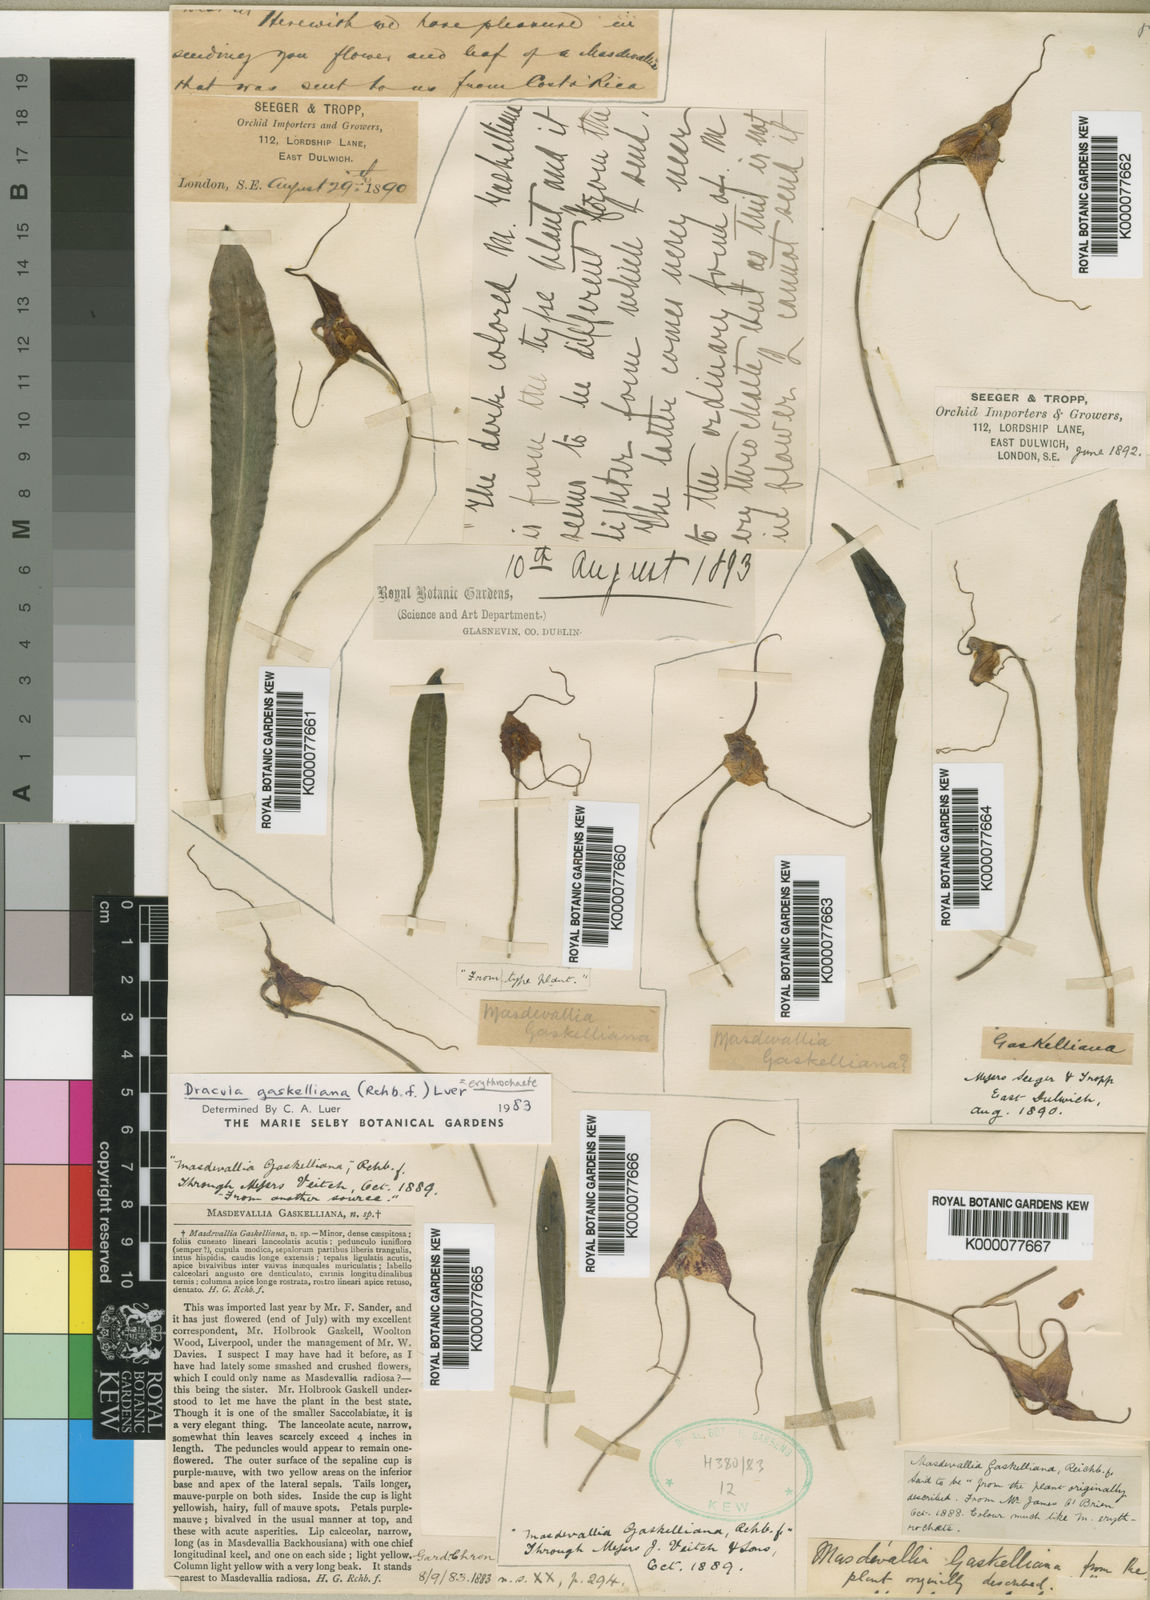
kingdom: Plantae
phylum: Tracheophyta
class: Liliopsida
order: Asparagales
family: Orchidaceae
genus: Dracula
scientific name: Dracula erythrochaete
